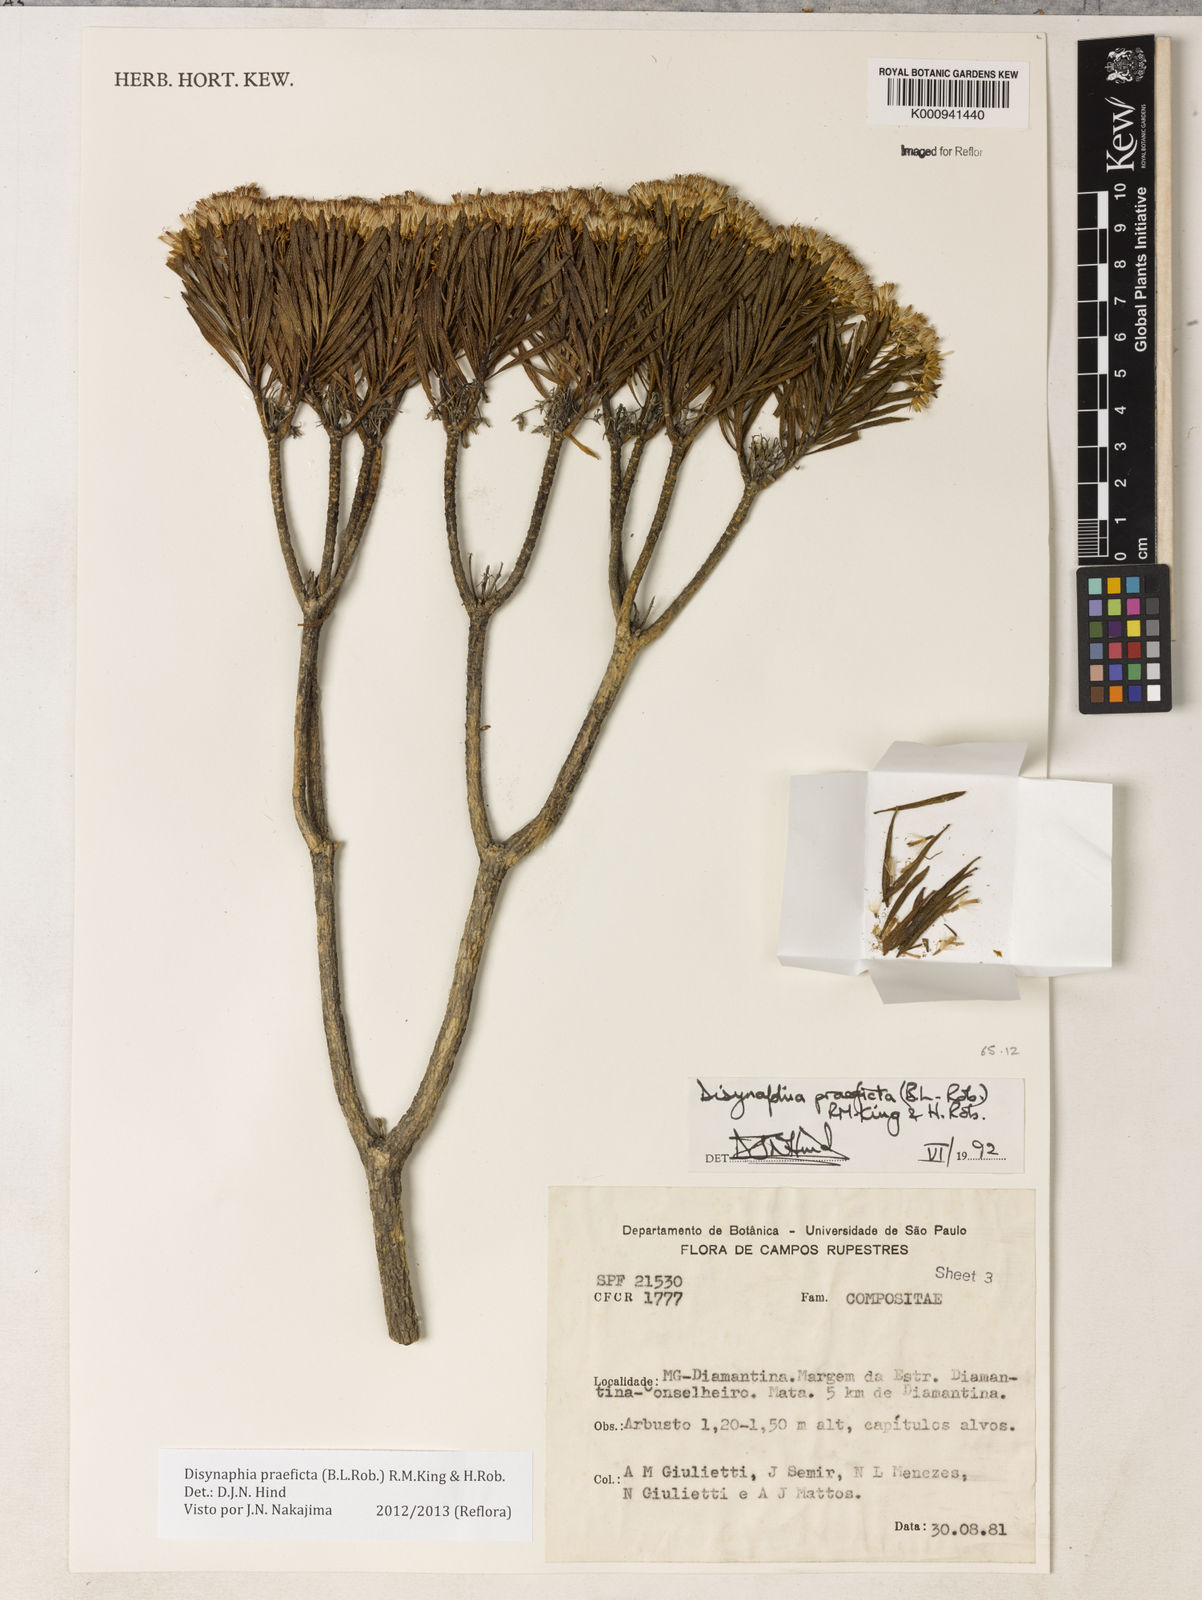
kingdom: Plantae
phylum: Tracheophyta
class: Magnoliopsida
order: Asterales
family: Asteraceae
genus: Disynaphia
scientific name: Disynaphia praeficta
